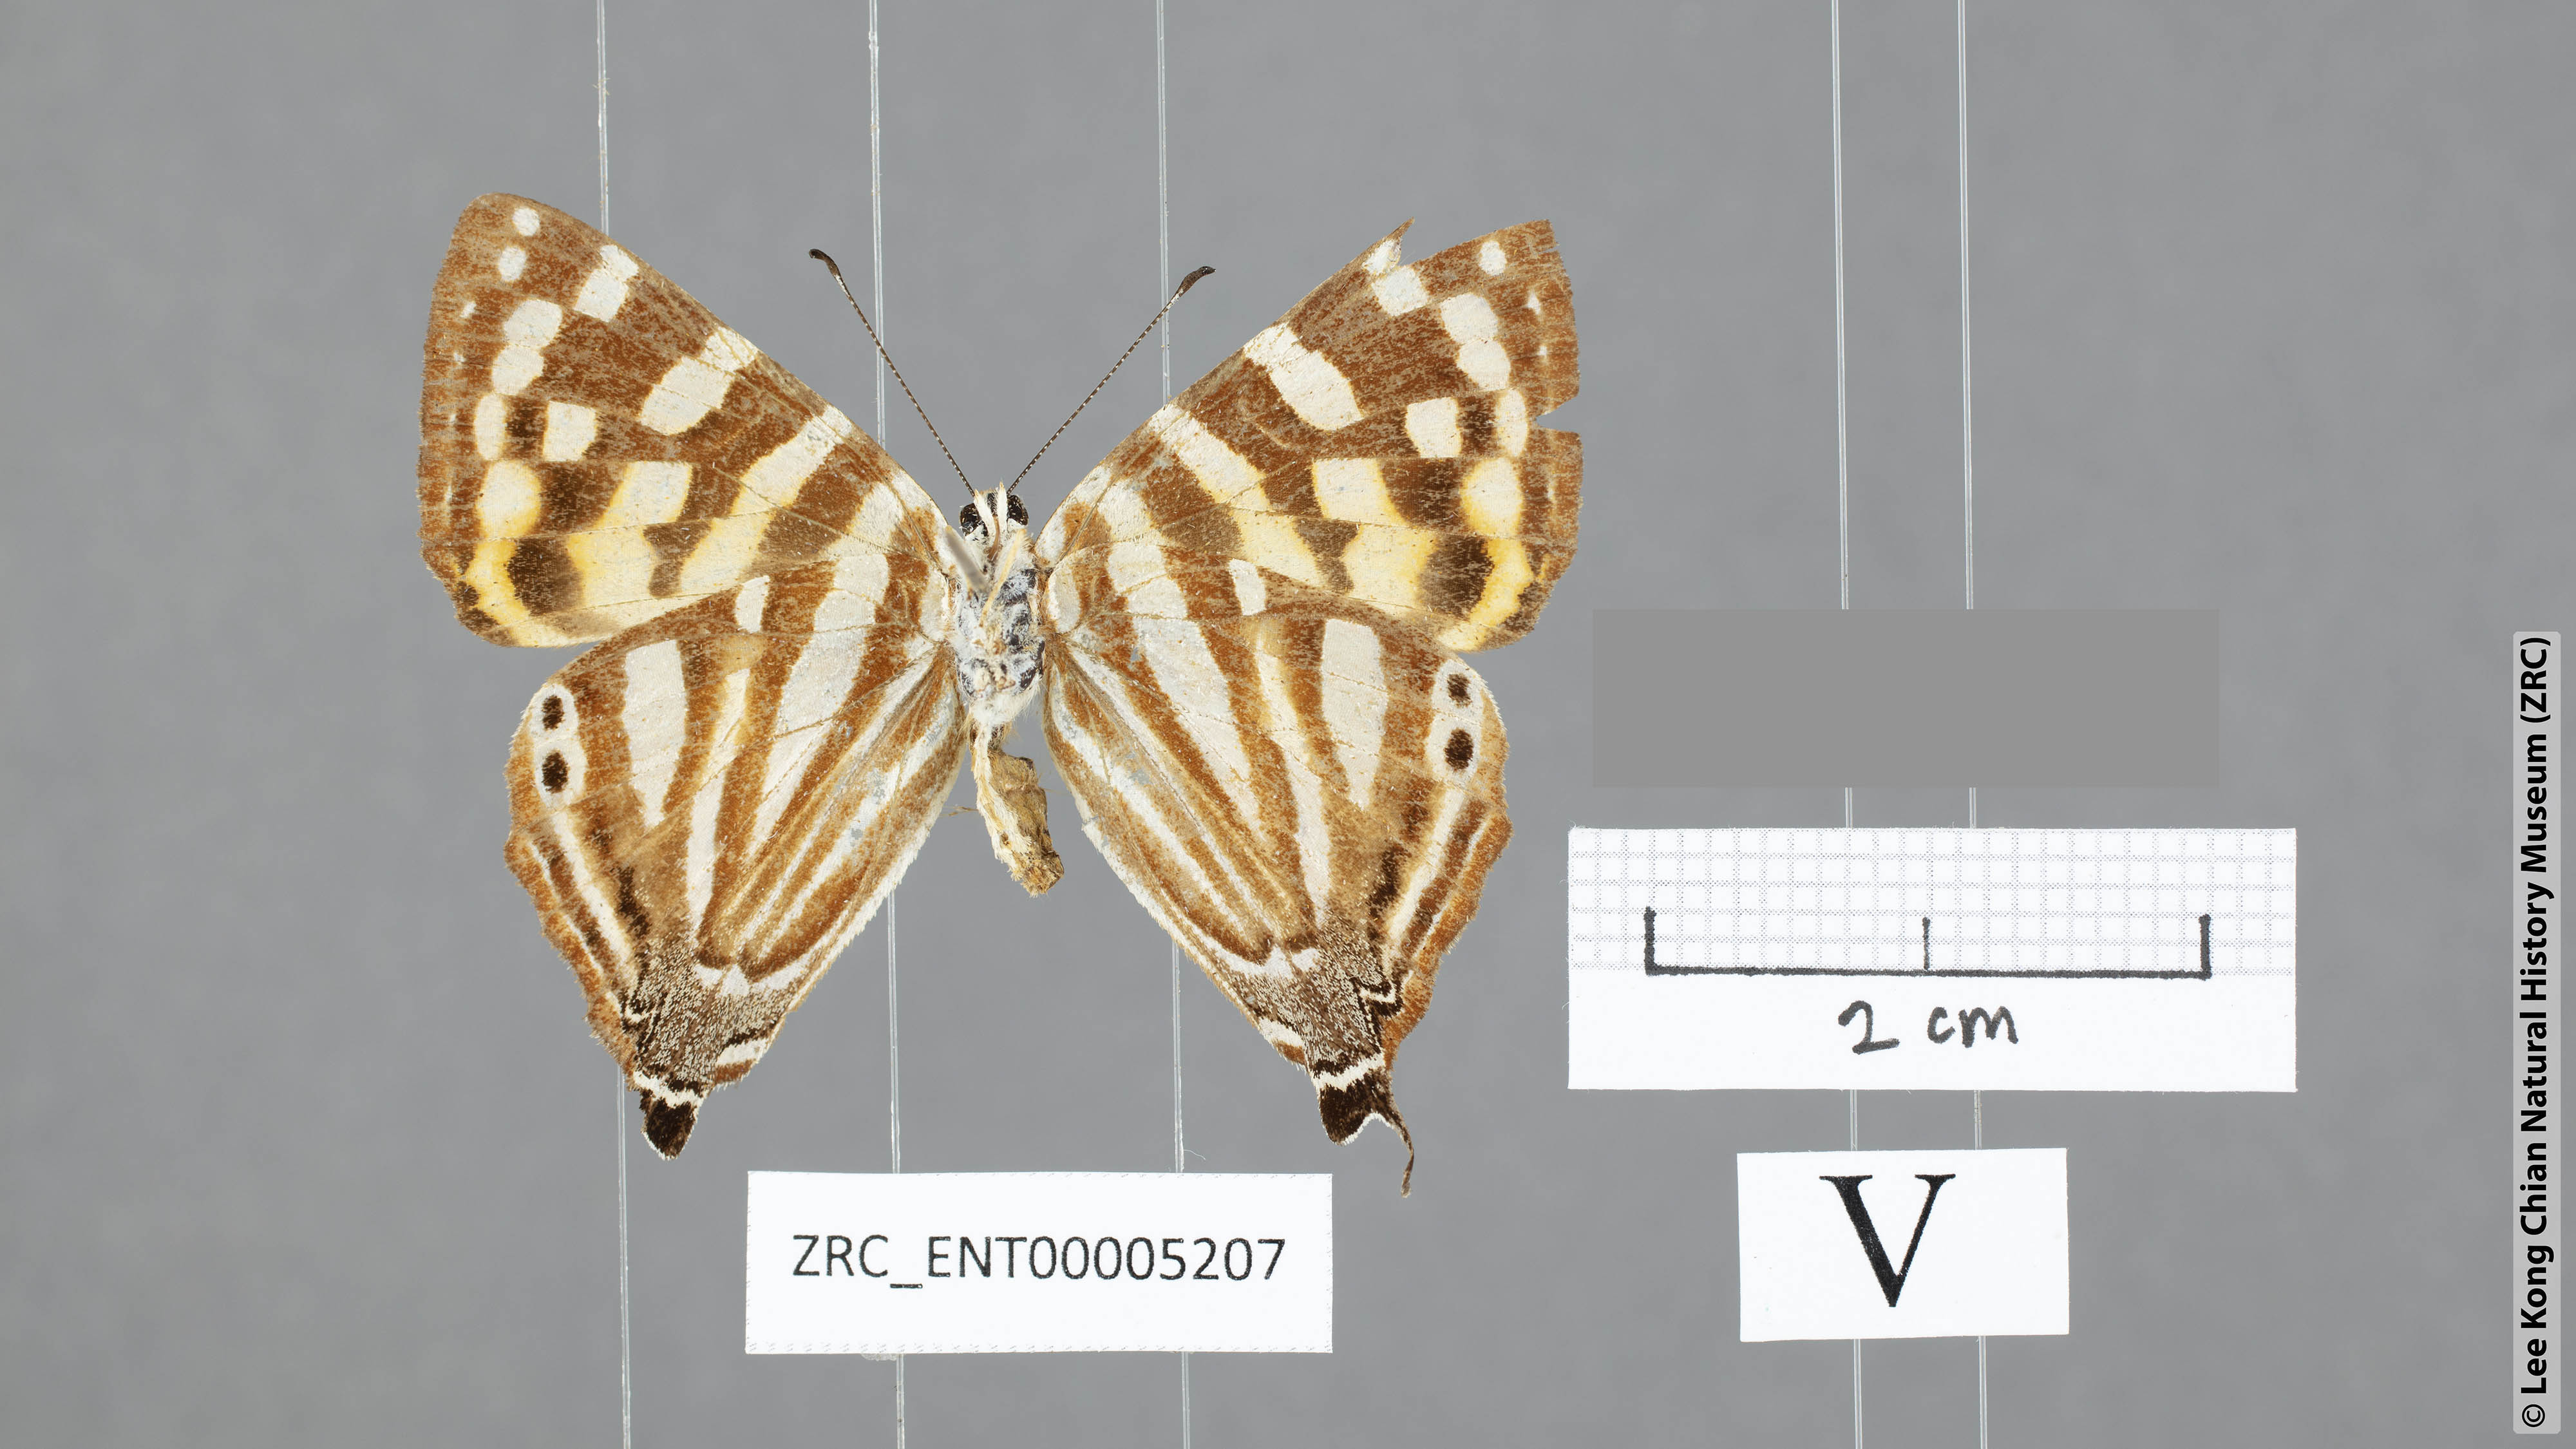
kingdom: Animalia
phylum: Arthropoda
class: Insecta
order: Lepidoptera
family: Lycaenidae
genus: Dodona
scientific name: Dodona egeon
